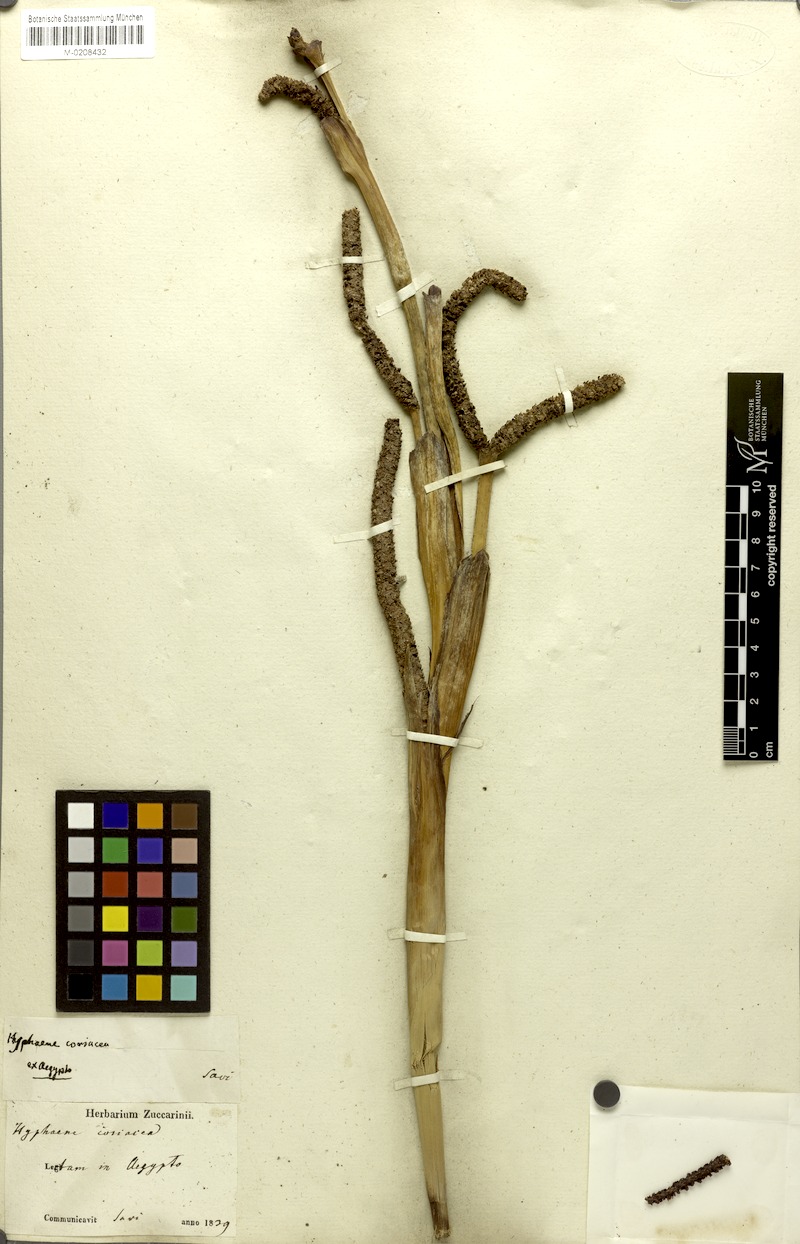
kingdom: Plantae
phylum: Tracheophyta
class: Liliopsida
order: Arecales
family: Arecaceae
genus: Hyphaene
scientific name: Hyphaene coriacea
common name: Ilala palm
